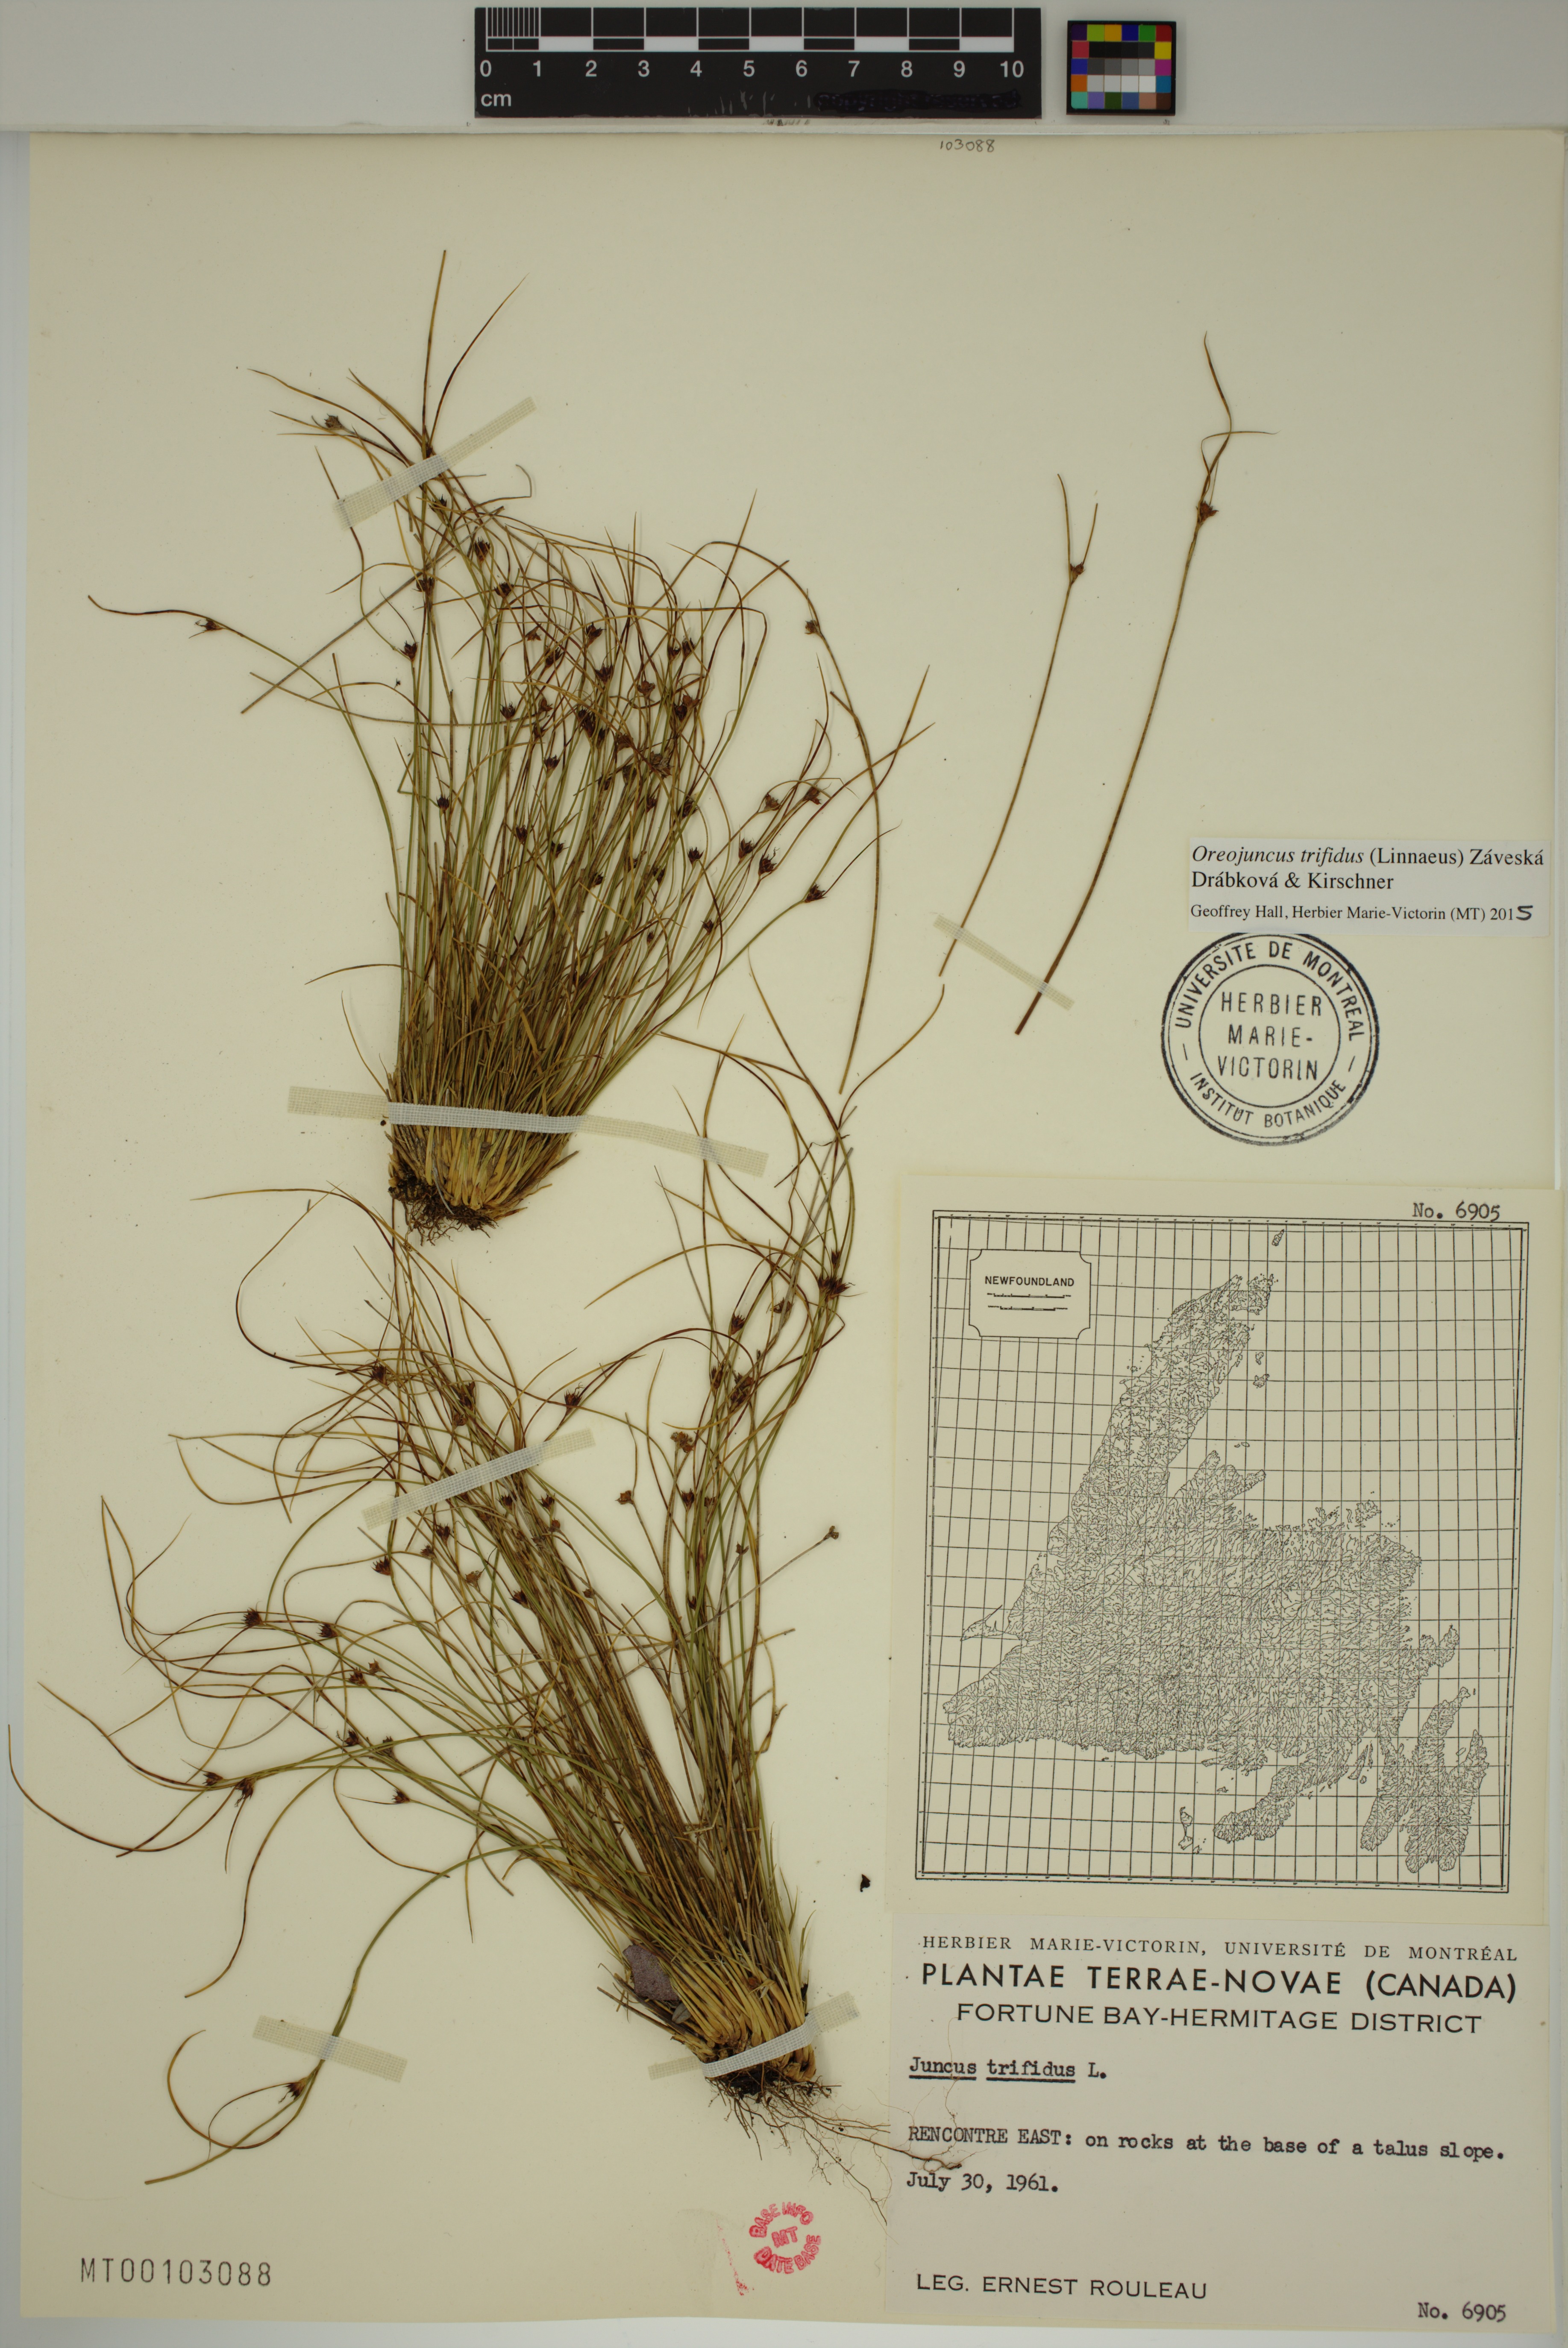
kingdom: Plantae
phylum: Tracheophyta
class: Liliopsida
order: Poales
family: Juncaceae
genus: Oreojuncus
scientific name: Oreojuncus trifidus
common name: Highland rush
